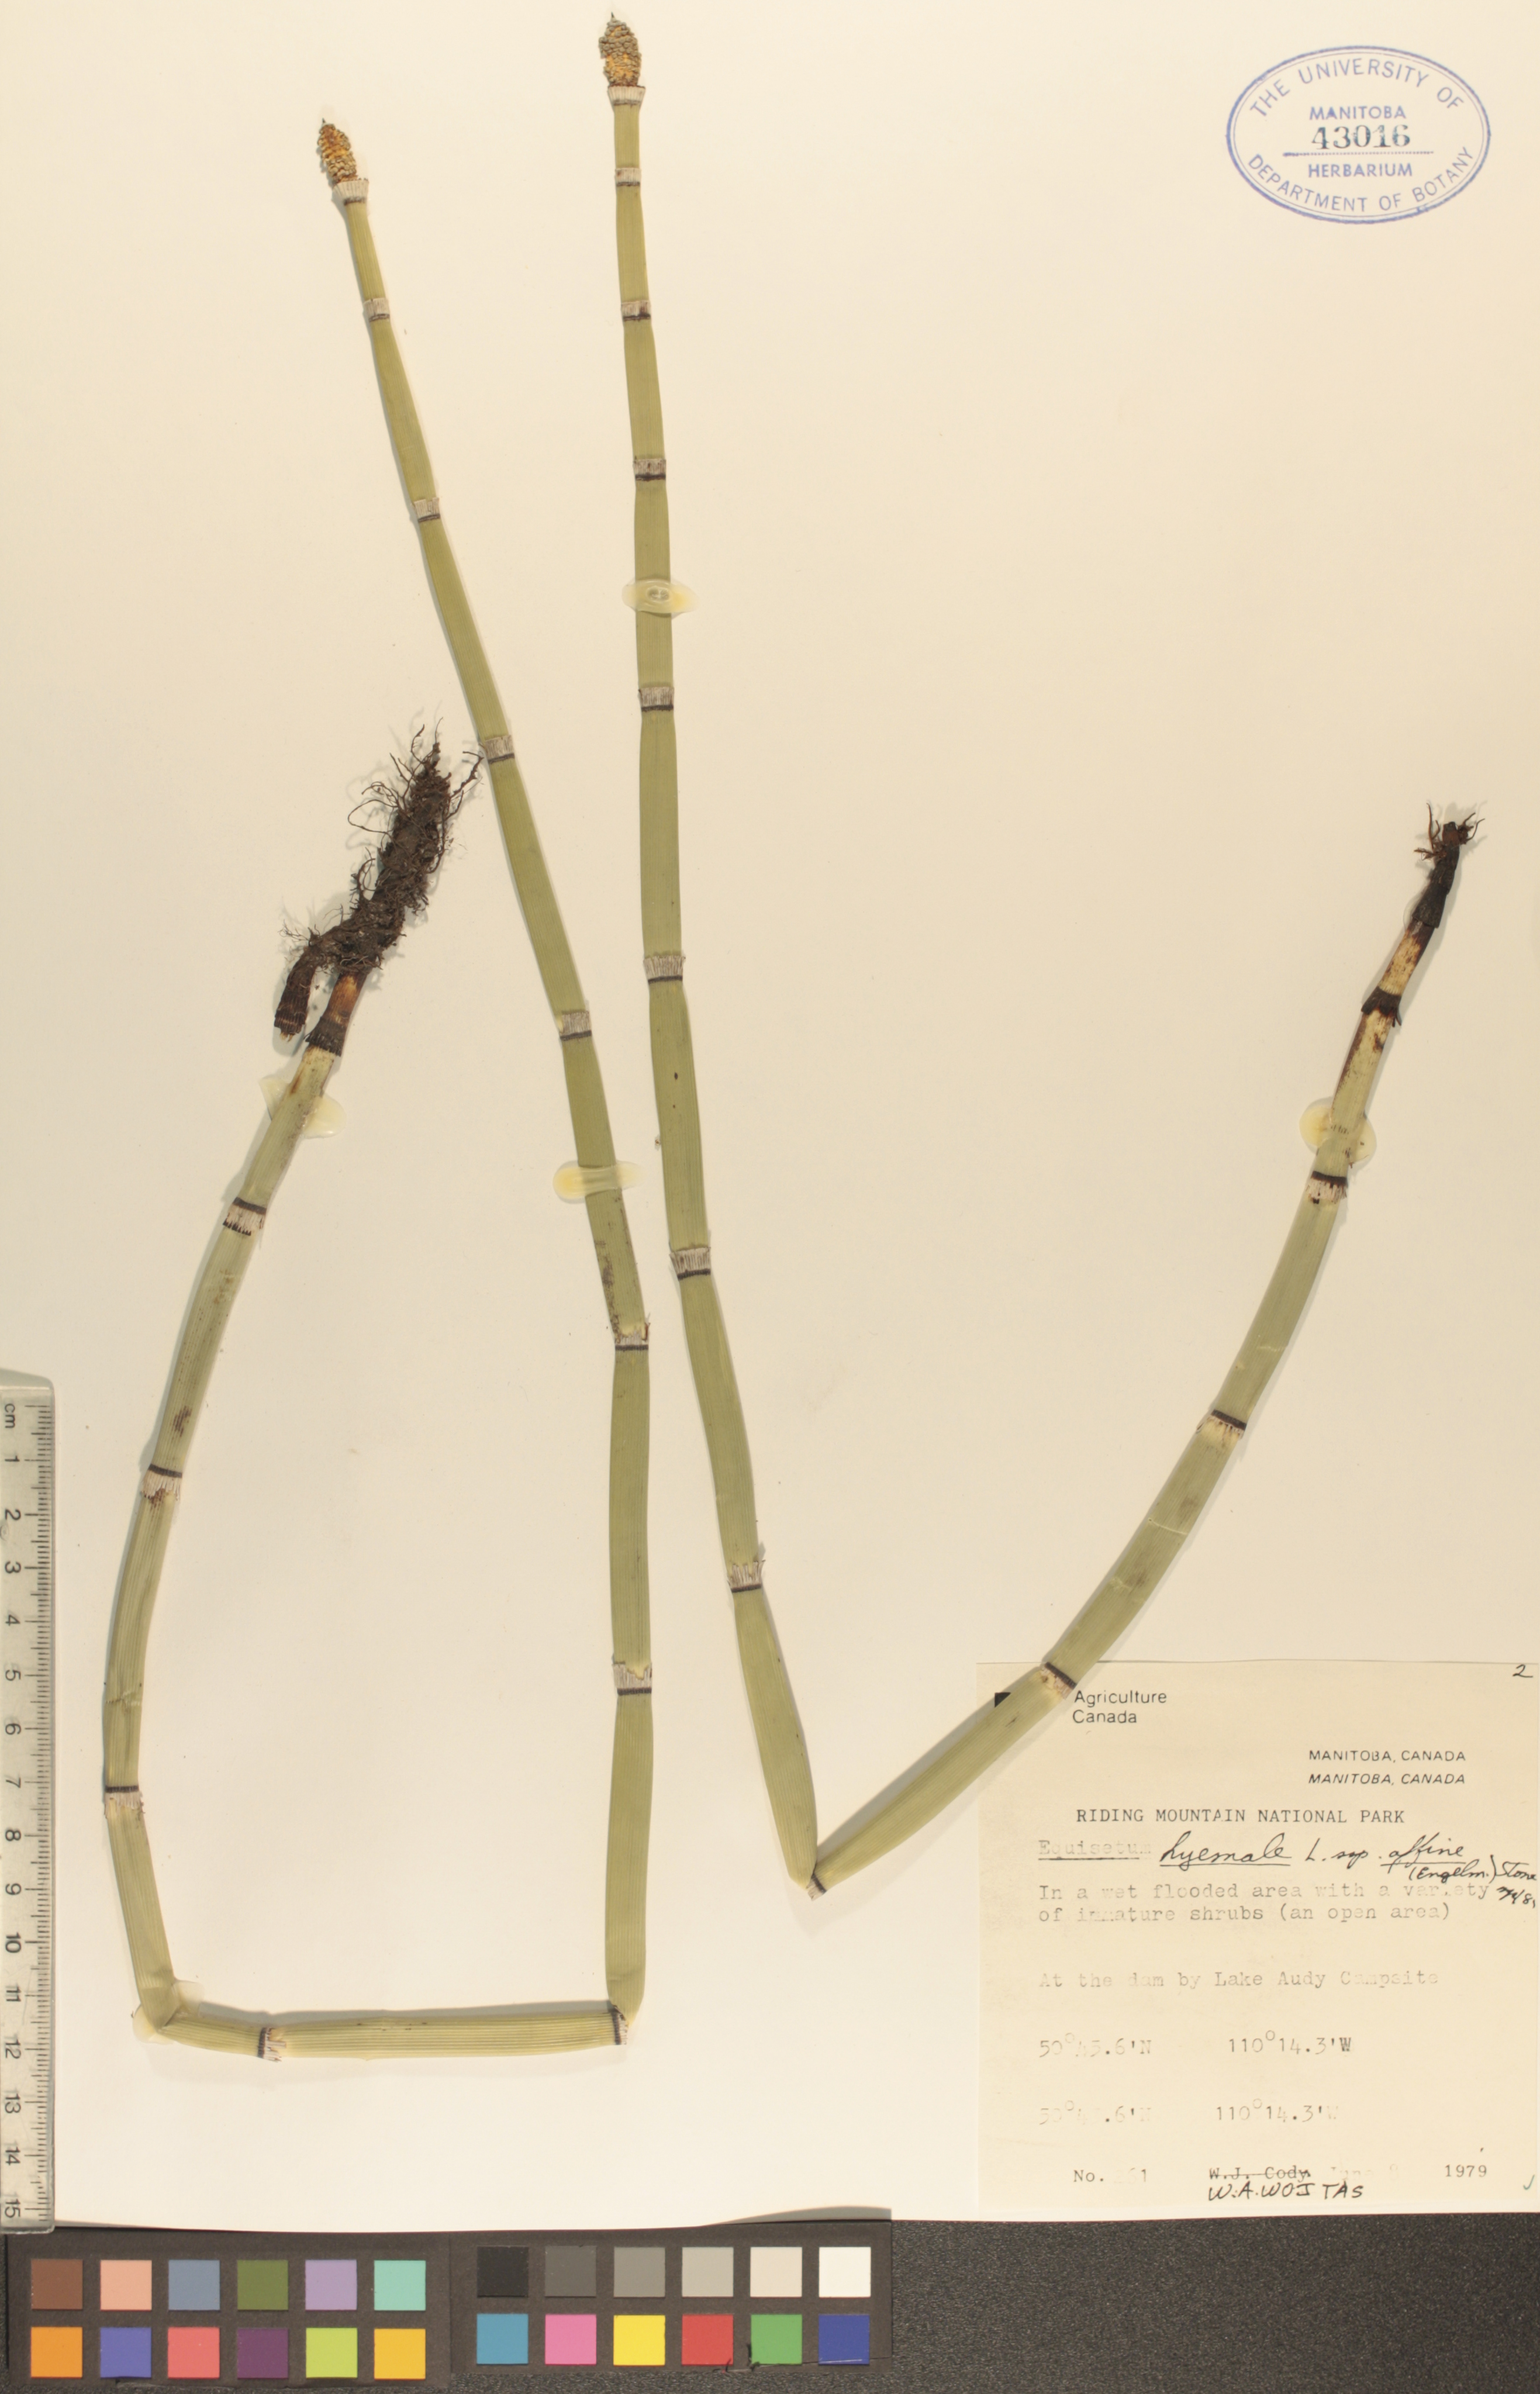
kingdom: Plantae
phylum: Tracheophyta
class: Polypodiopsida
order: Equisetales
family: Equisetaceae
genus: Equisetum
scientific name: Equisetum praealtum
